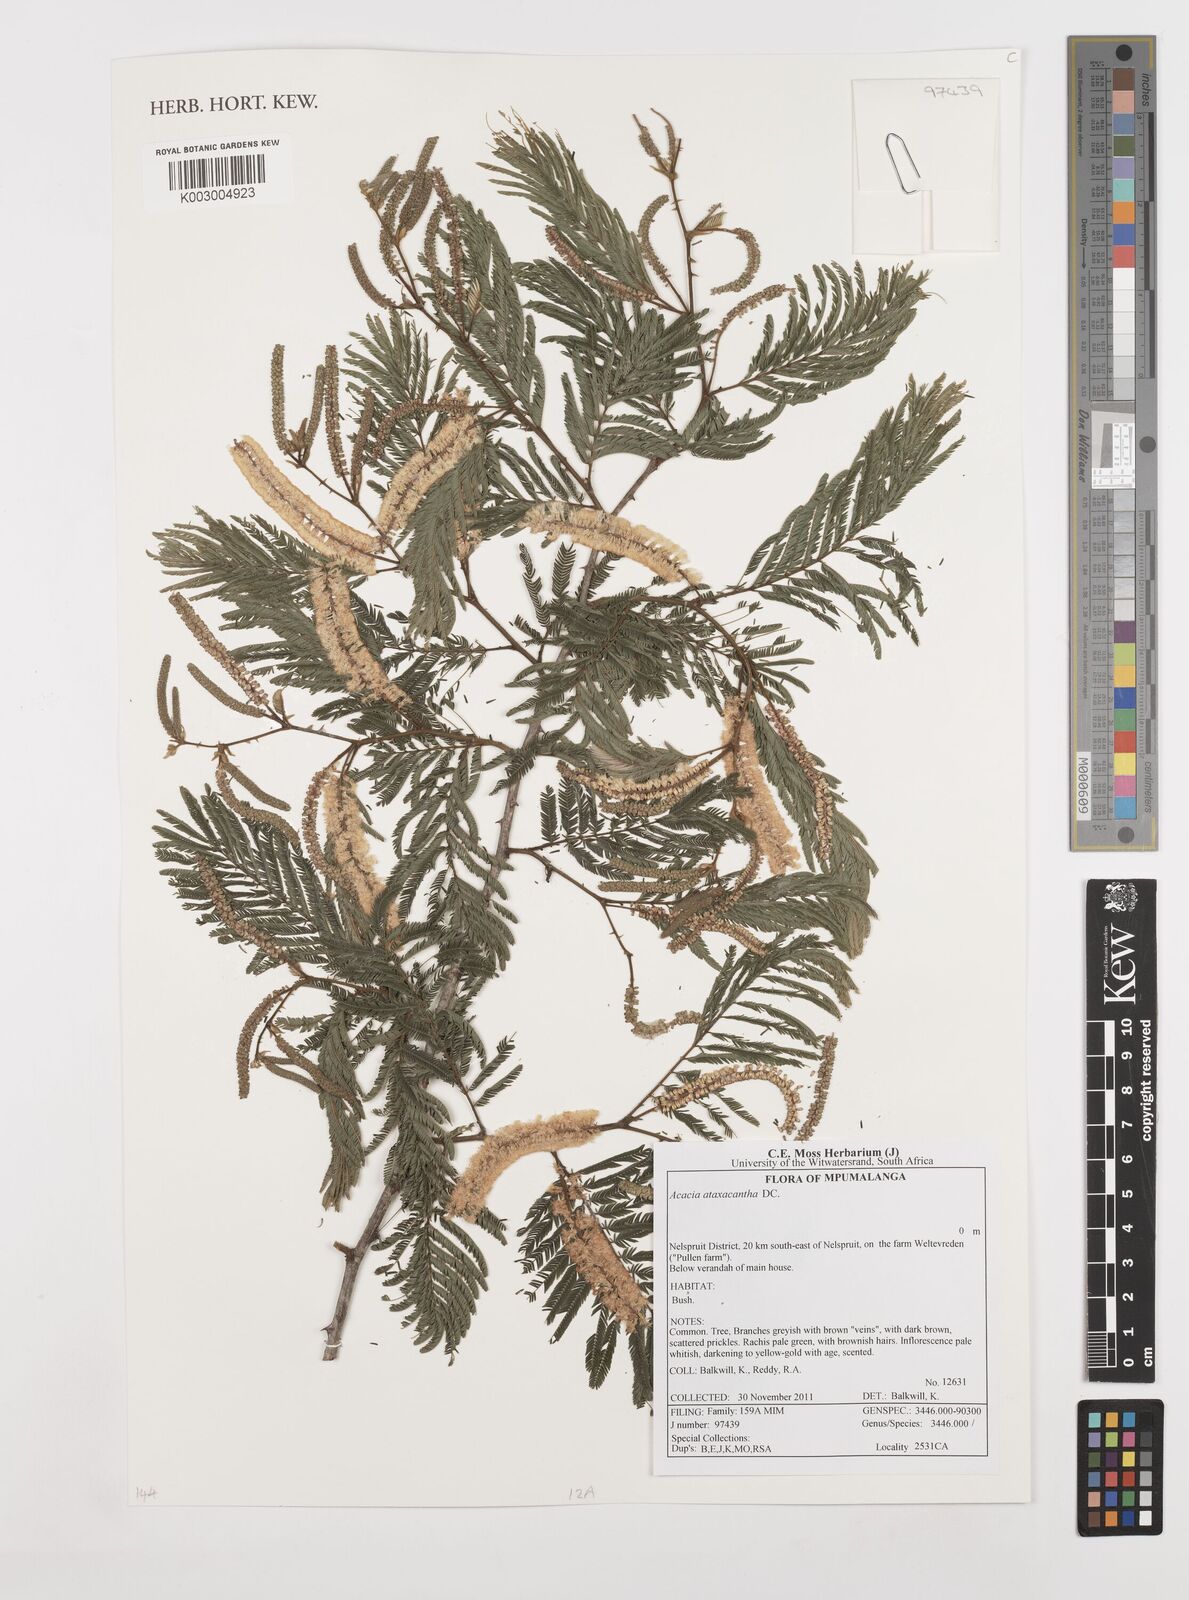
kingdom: Plantae
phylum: Tracheophyta
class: Magnoliopsida
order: Fabales
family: Fabaceae
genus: Senegalia
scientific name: Senegalia ataxacantha
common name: Flame acacia
